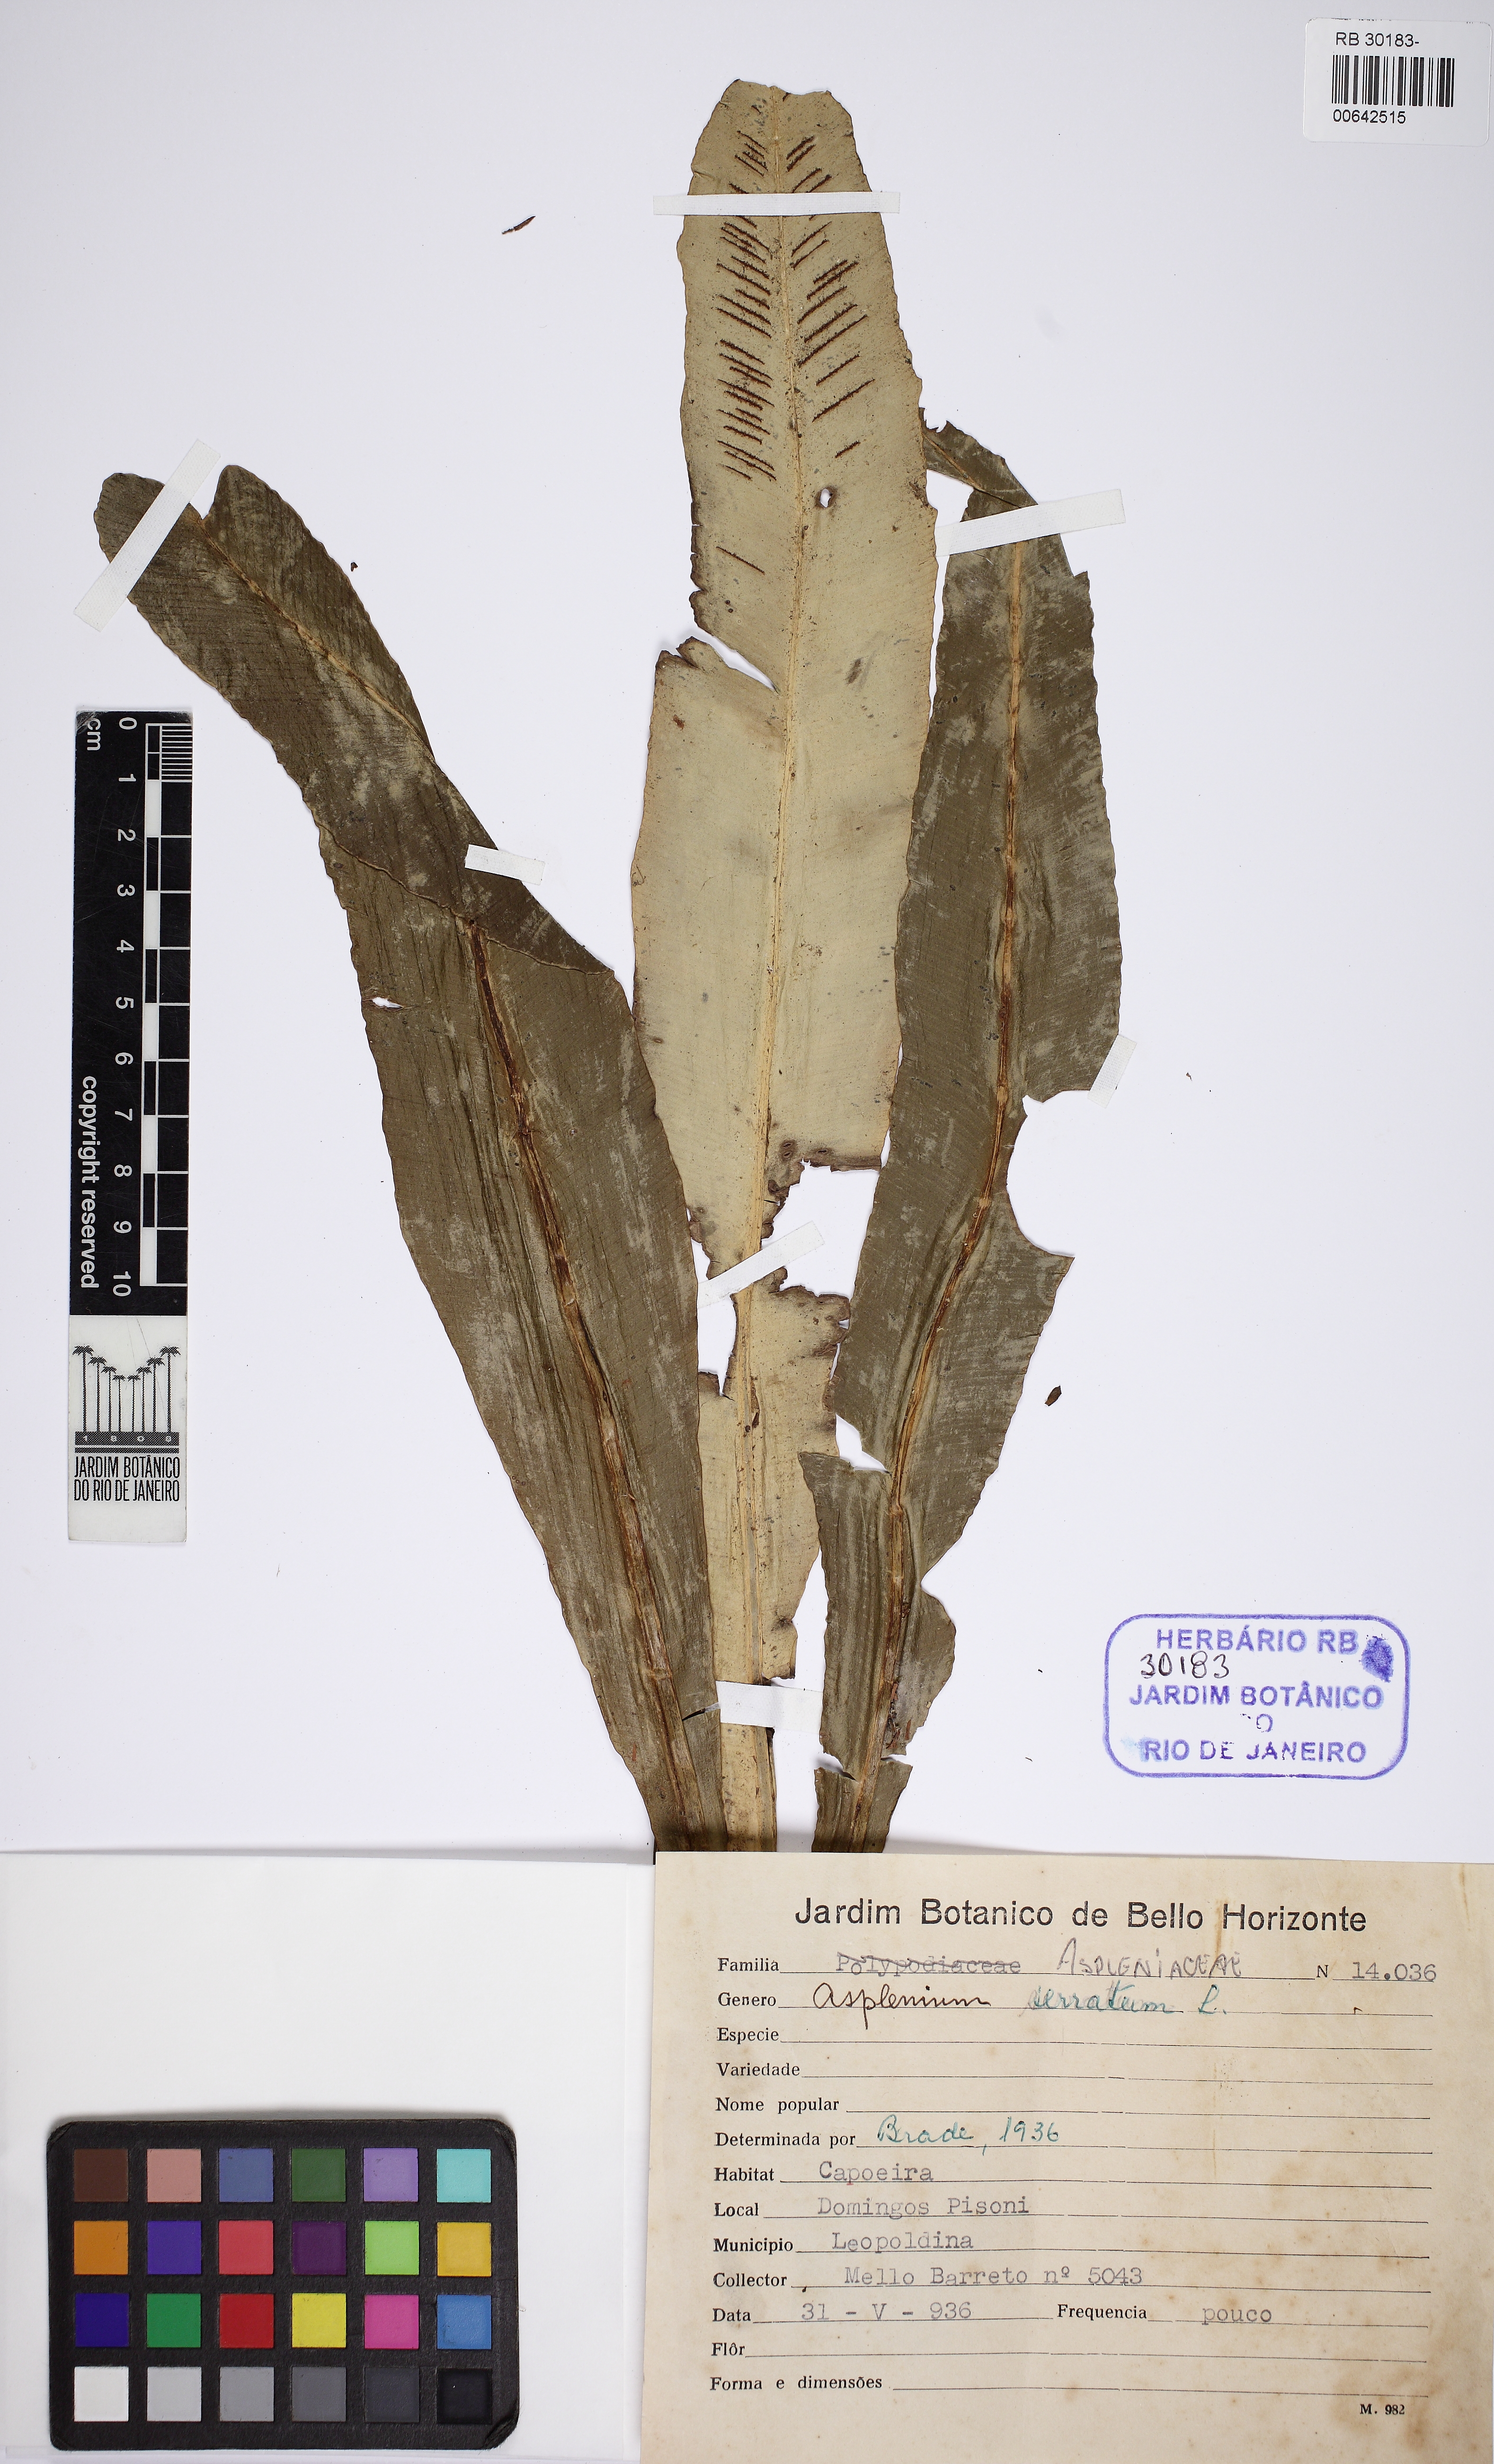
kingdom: Plantae
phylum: Tracheophyta
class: Polypodiopsida
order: Polypodiales
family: Aspleniaceae
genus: Asplenium
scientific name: Asplenium serratum
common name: Wild birdnest fern
